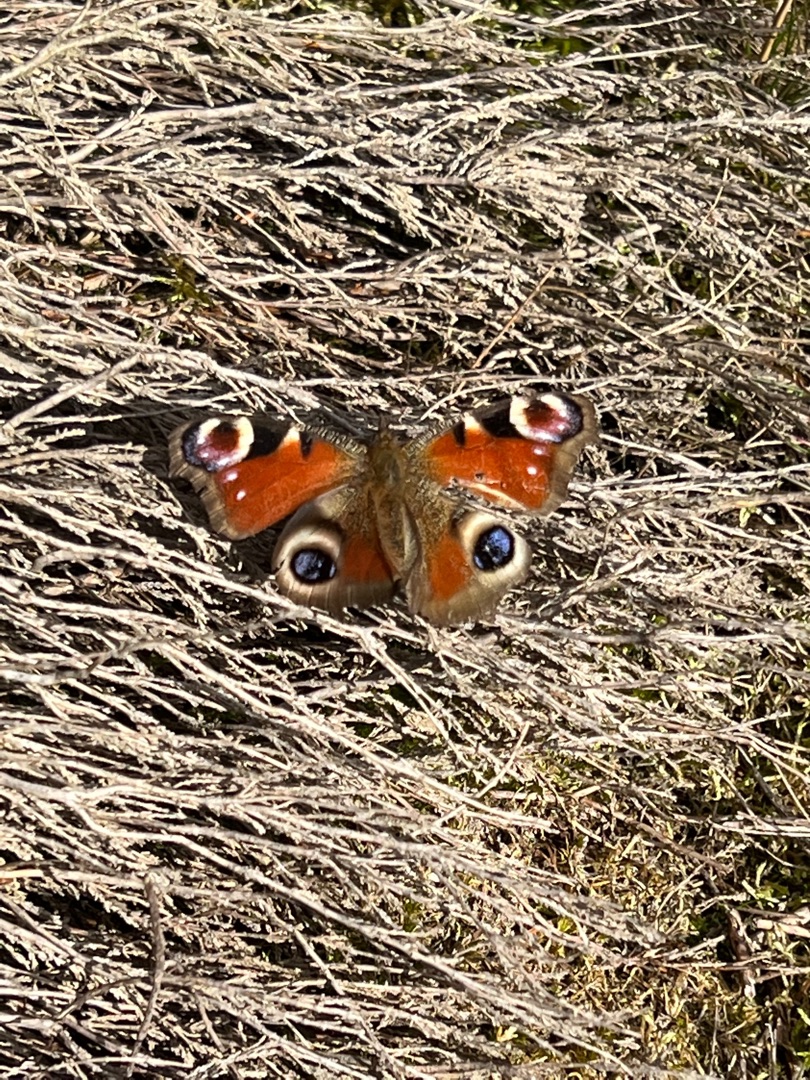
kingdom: Animalia
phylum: Arthropoda
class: Insecta
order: Lepidoptera
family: Nymphalidae
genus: Aglais
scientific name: Aglais io
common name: Dagpåfugleøje
